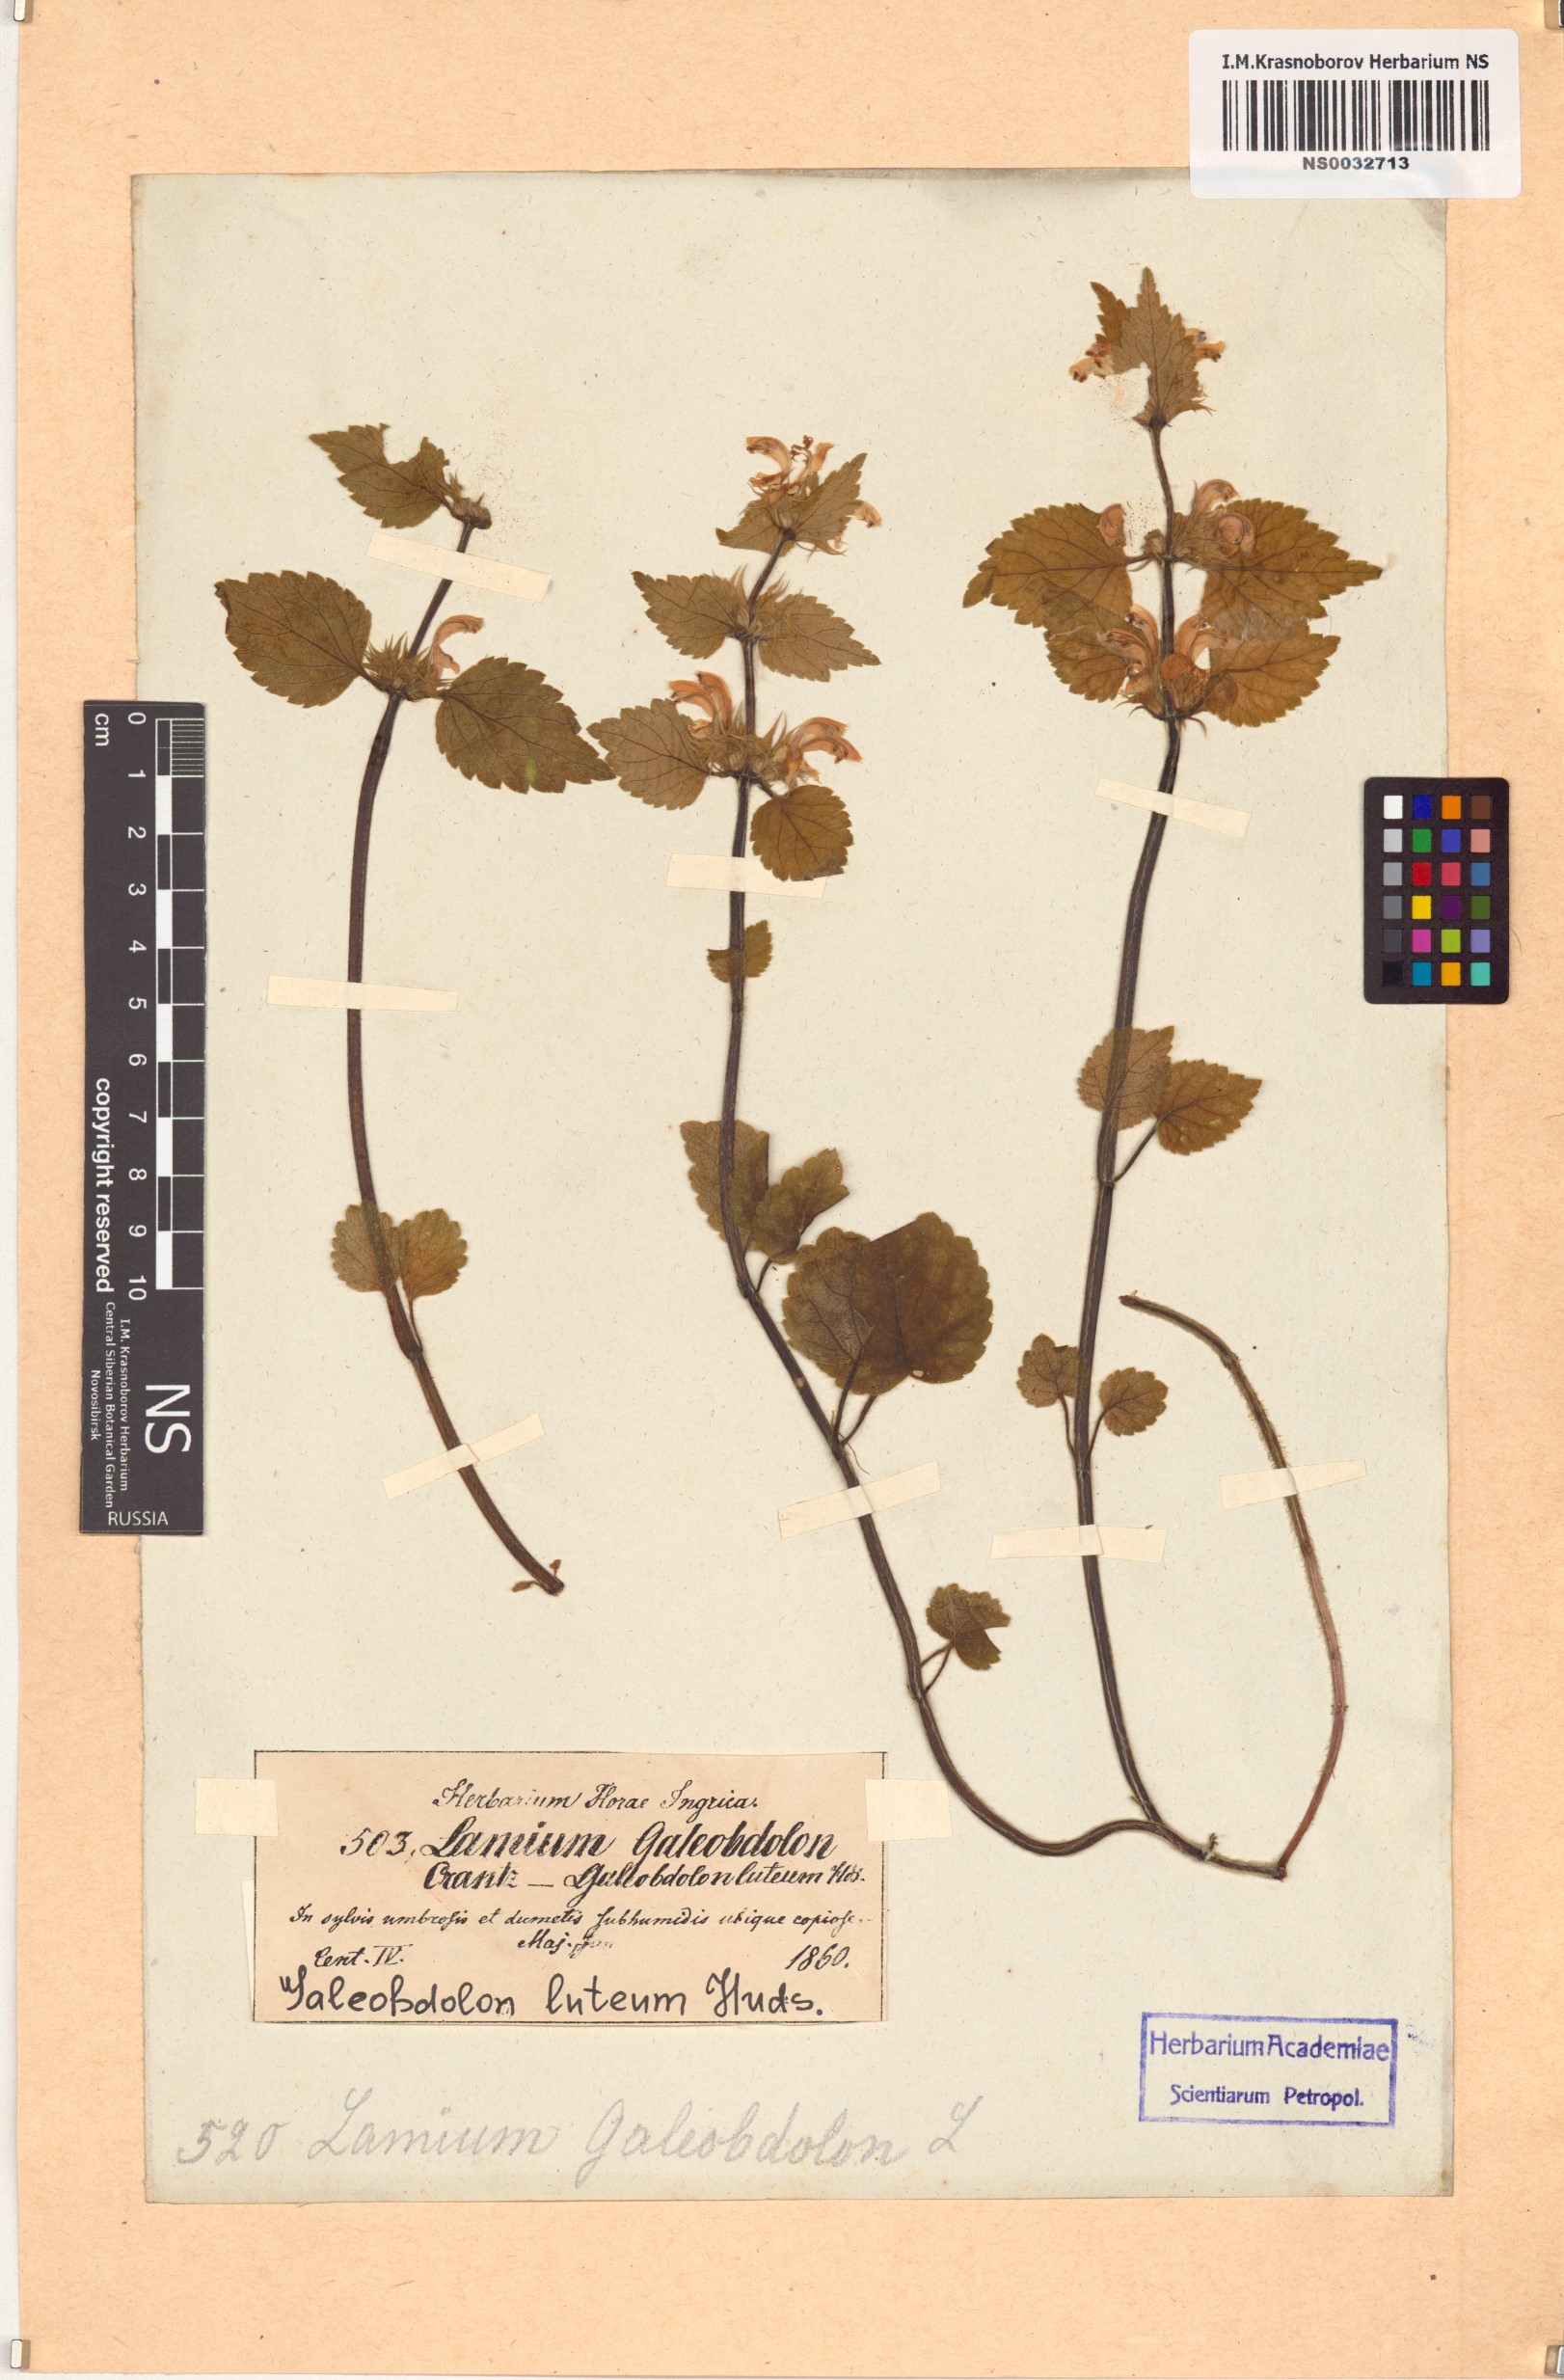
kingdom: Plantae
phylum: Tracheophyta
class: Magnoliopsida
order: Lamiales
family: Lamiaceae
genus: Lamium
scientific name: Lamium galeobdolon
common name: Yellow archangel
